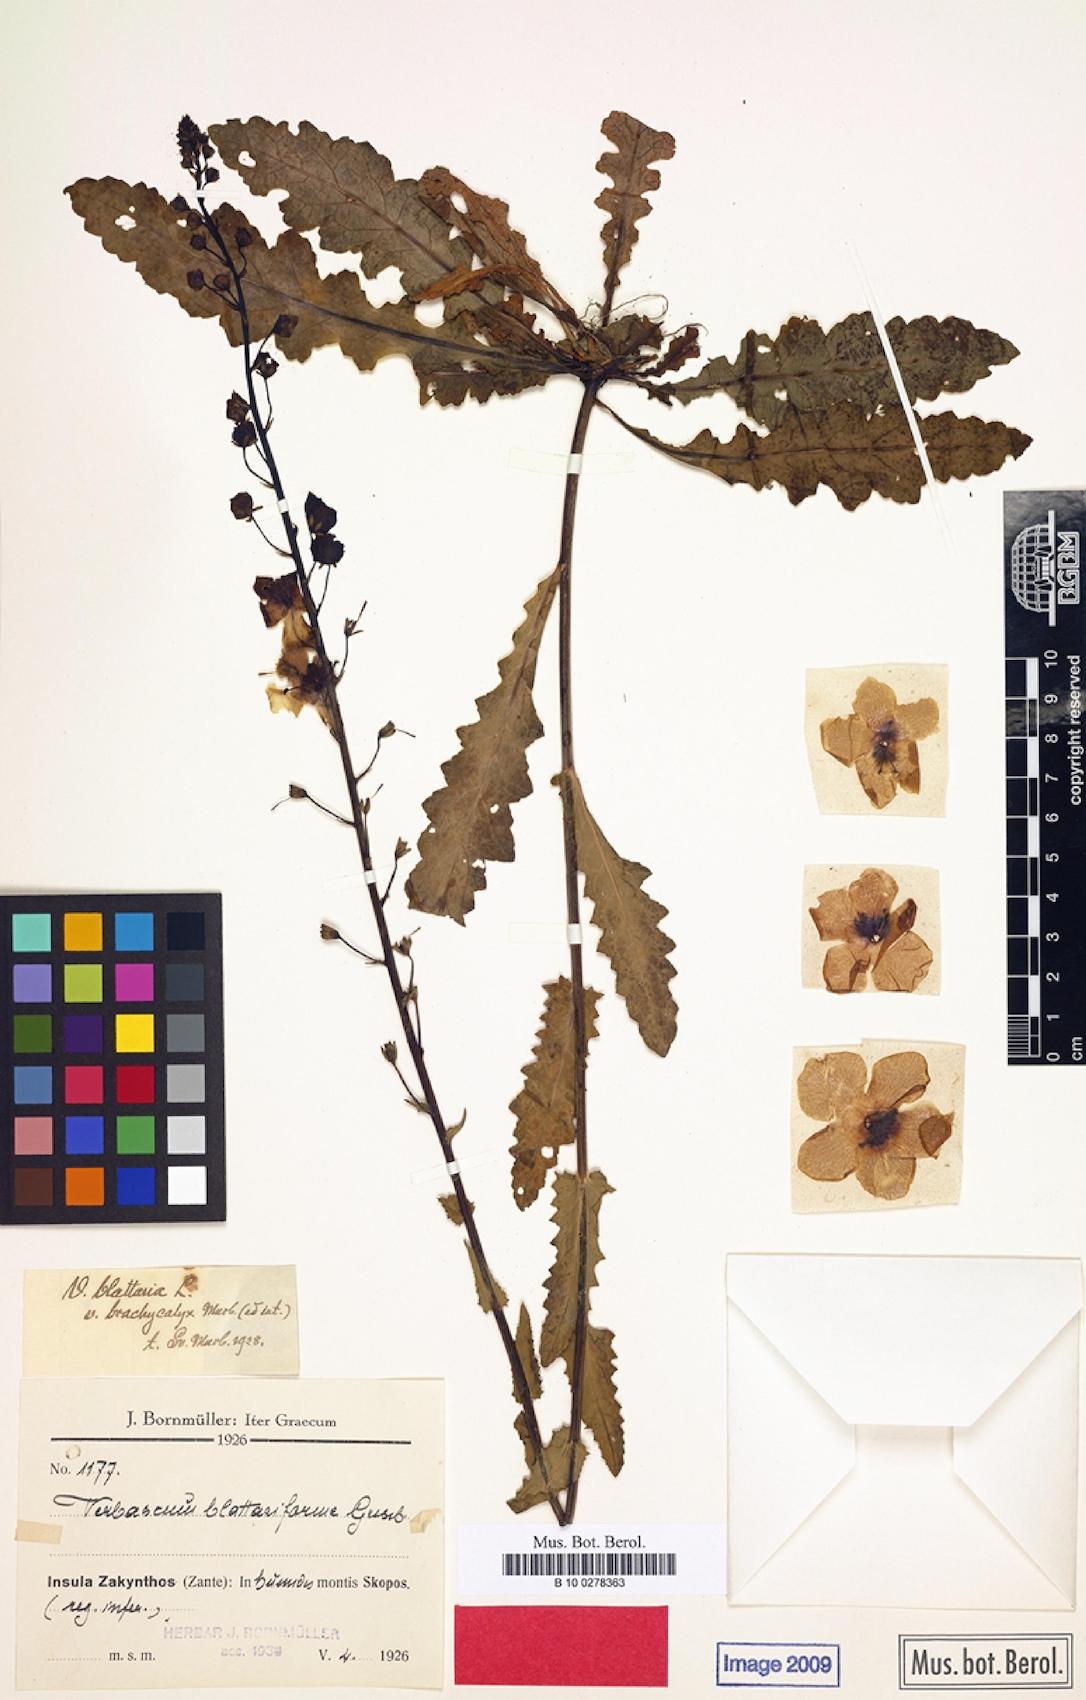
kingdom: Plantae
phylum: Tracheophyta
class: Magnoliopsida
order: Lamiales
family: Scrophulariaceae
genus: Verbascum
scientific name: Verbascum blattaria
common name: Moth mullein
